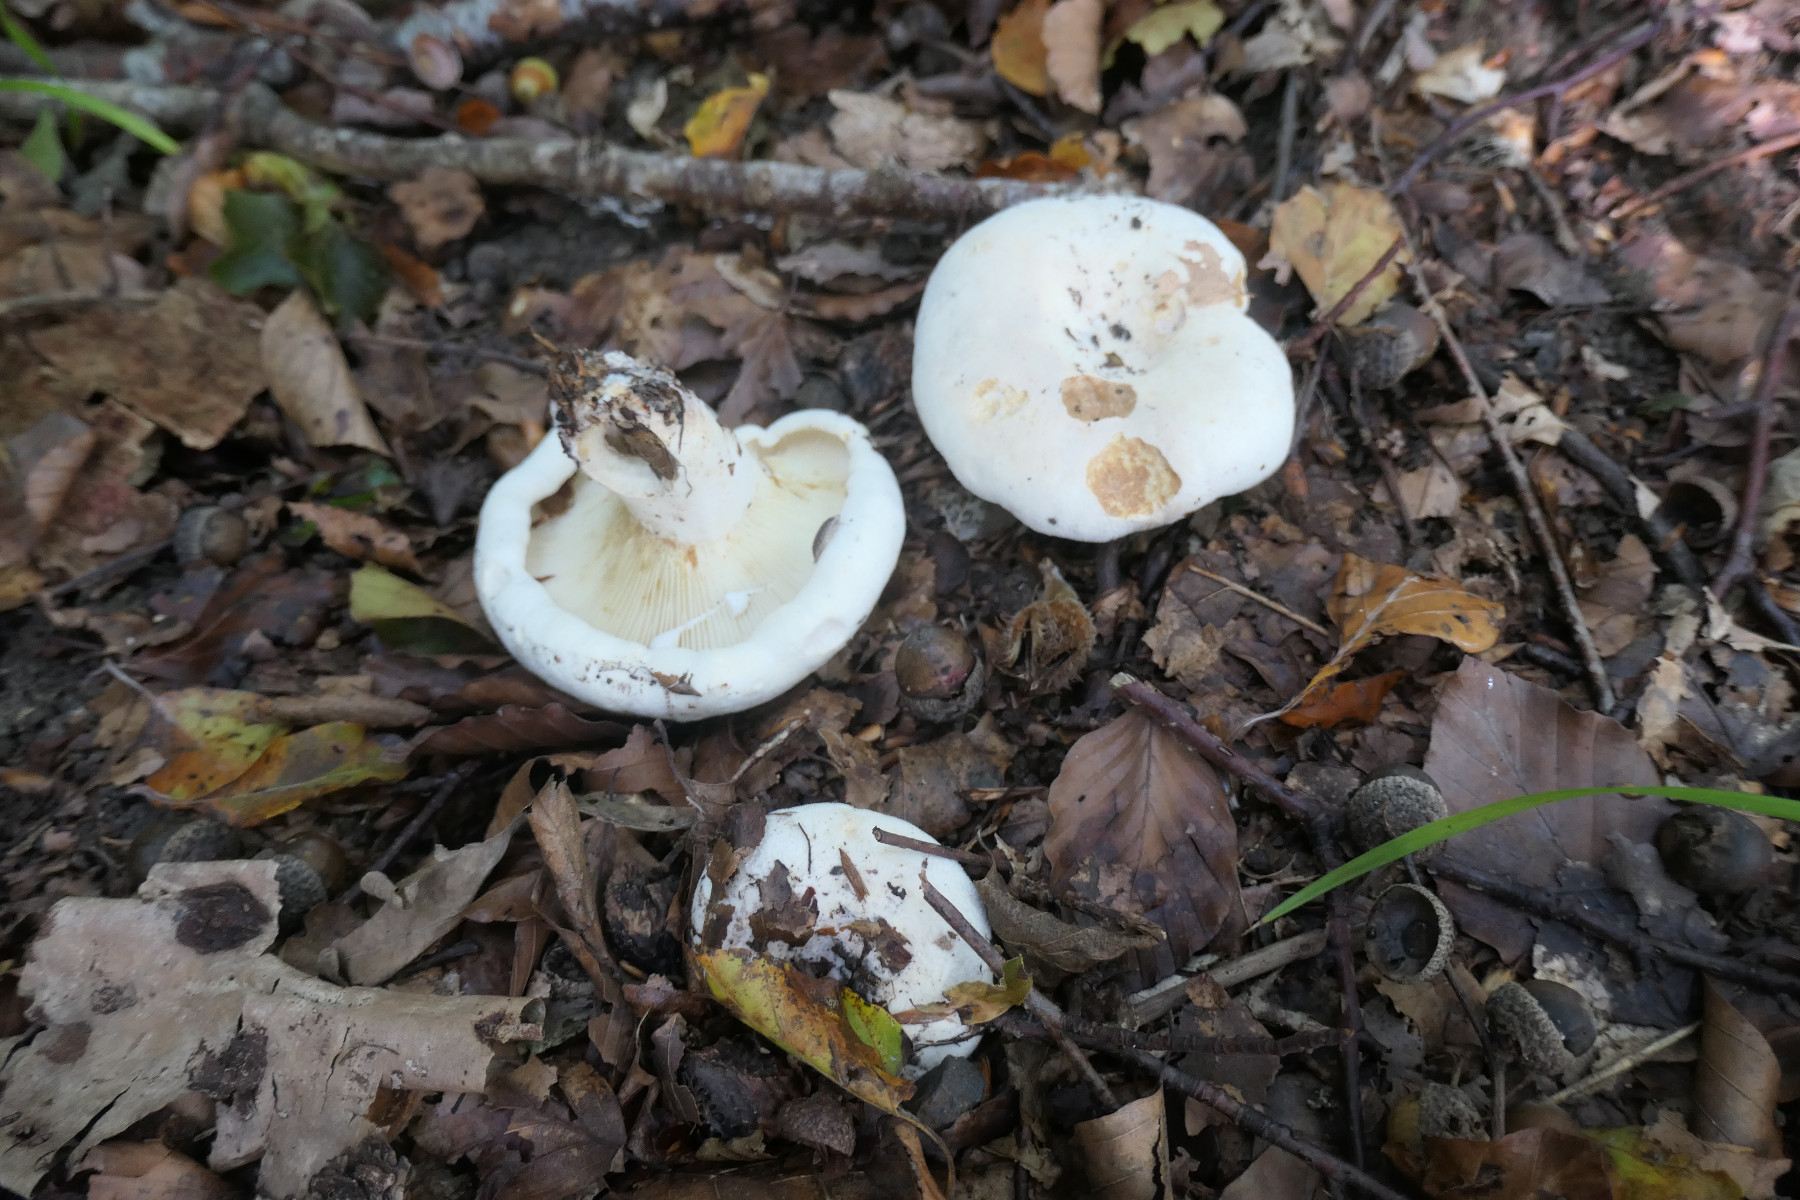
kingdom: Fungi
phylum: Basidiomycota
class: Agaricomycetes
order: Russulales
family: Russulaceae
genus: Lactifluus
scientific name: Lactifluus vellereus
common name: hvidfiltet mælkehat
